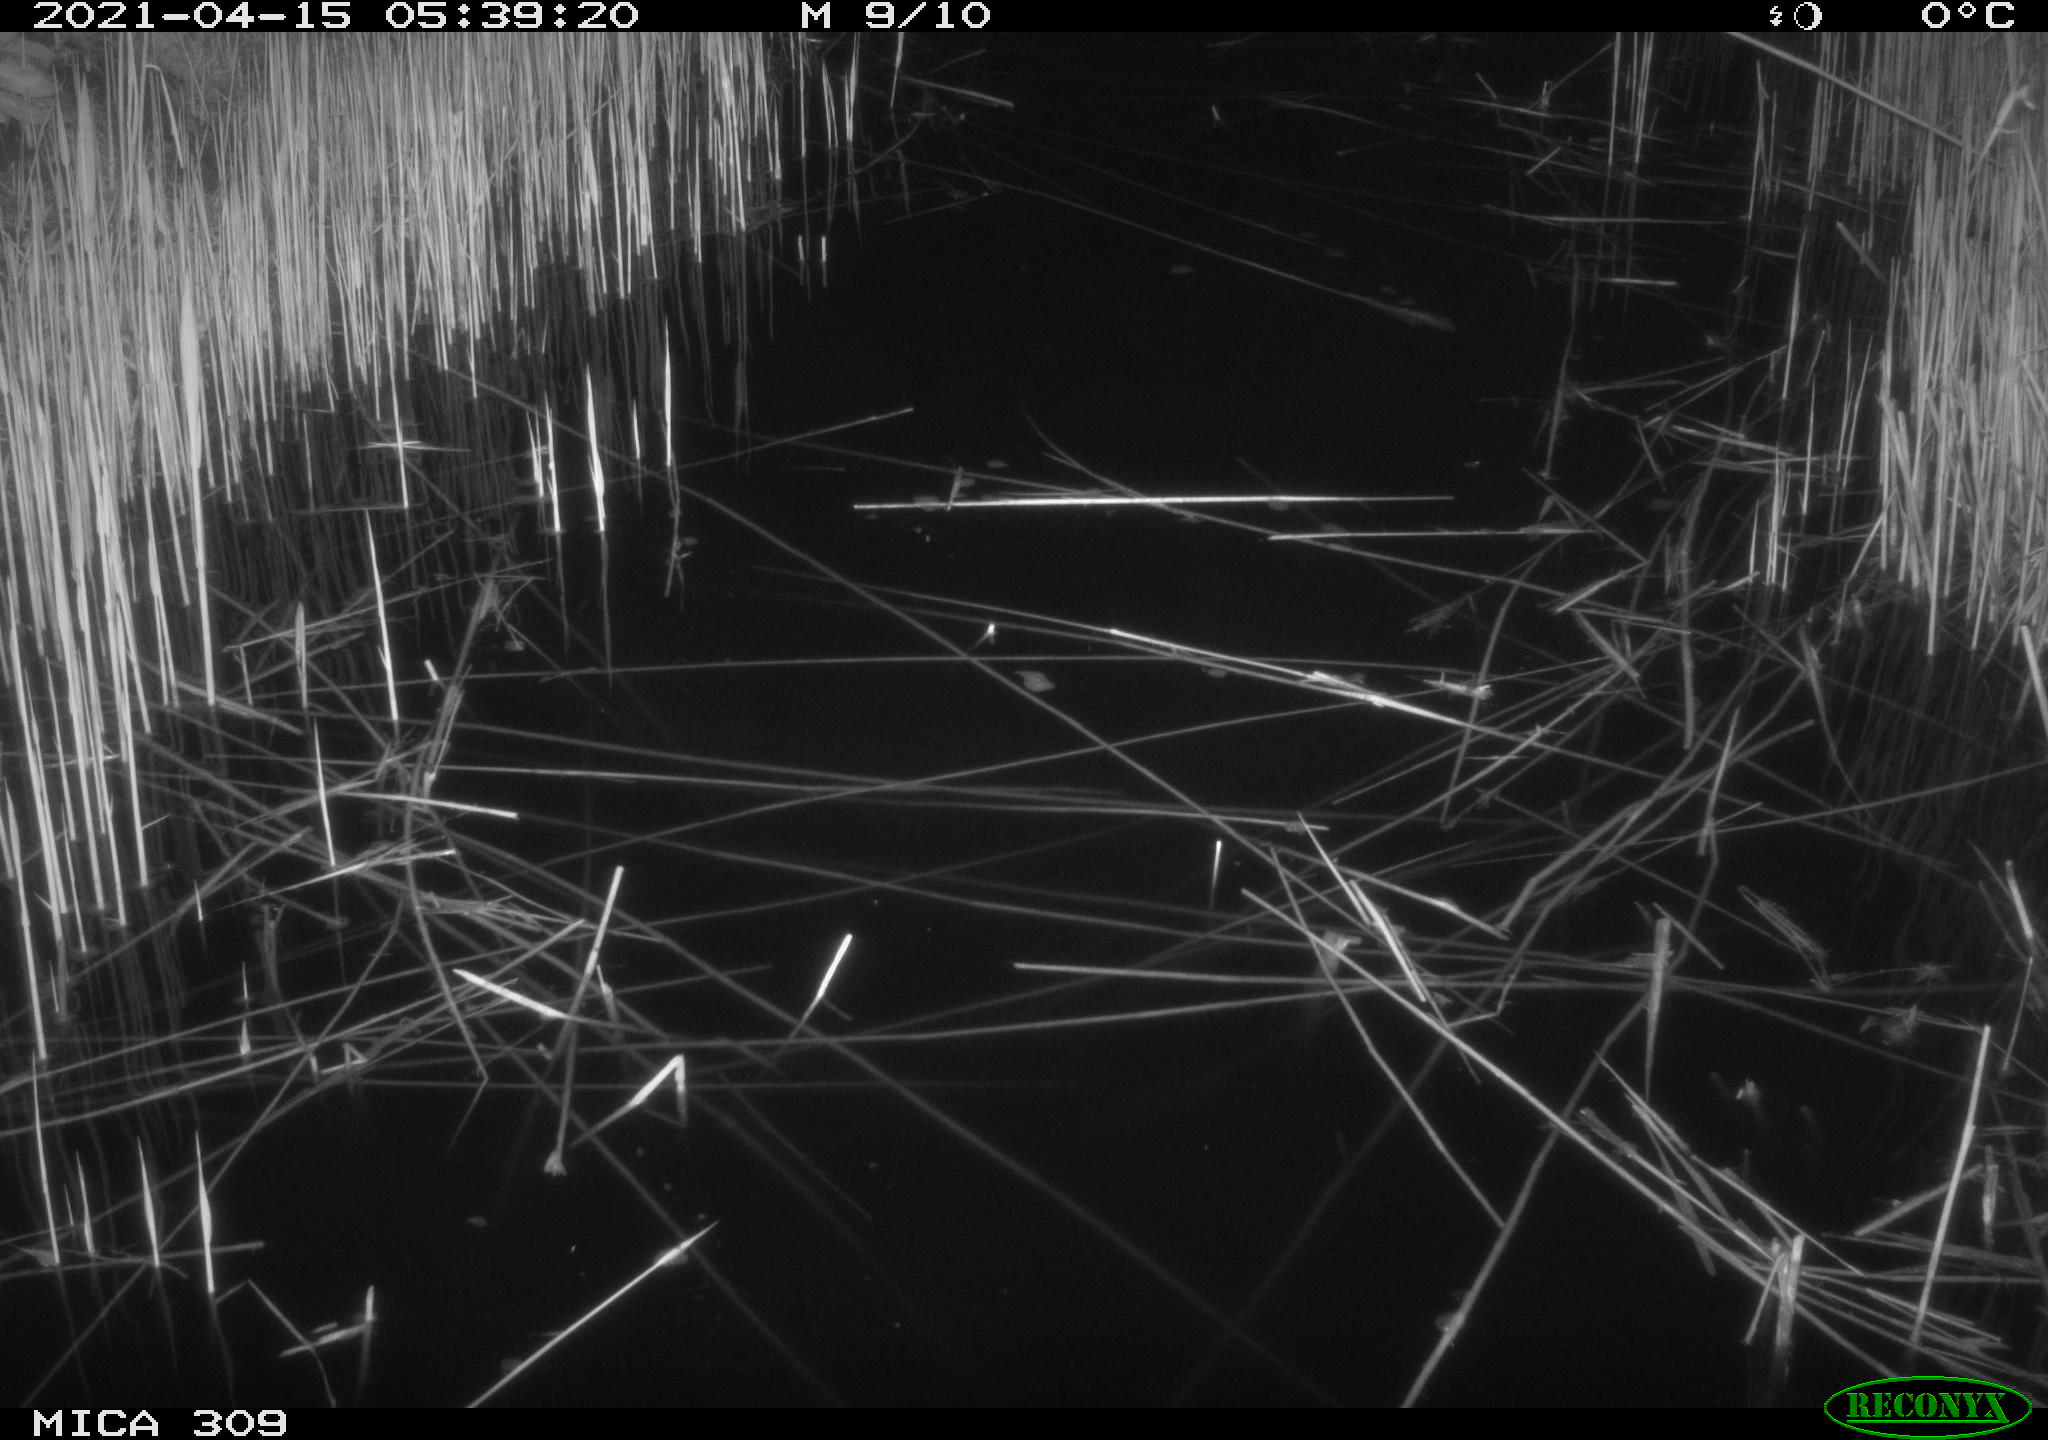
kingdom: Animalia
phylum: Chordata
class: Aves
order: Anseriformes
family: Anatidae
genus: Anas
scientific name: Anas platyrhynchos
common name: Mallard
